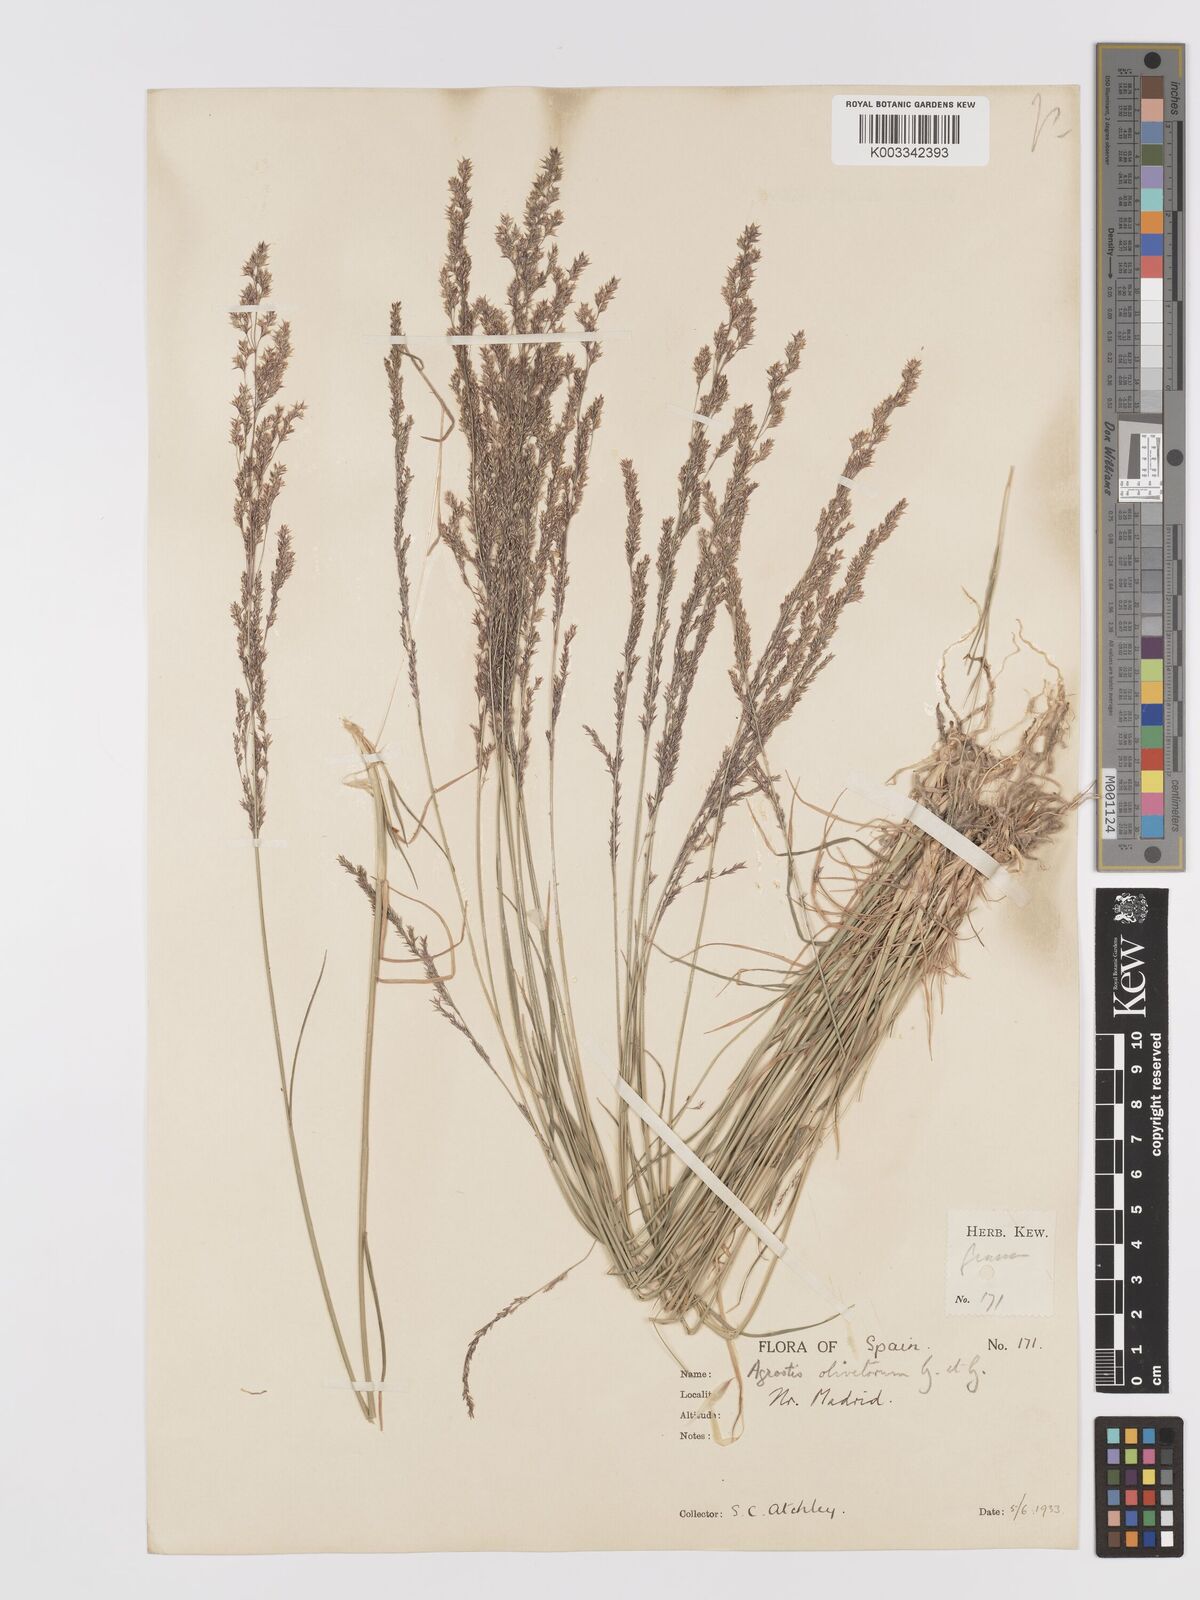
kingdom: Plantae
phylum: Tracheophyta
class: Liliopsida
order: Poales
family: Poaceae
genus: Agrostis
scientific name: Agrostis castellana
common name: Highland bent
